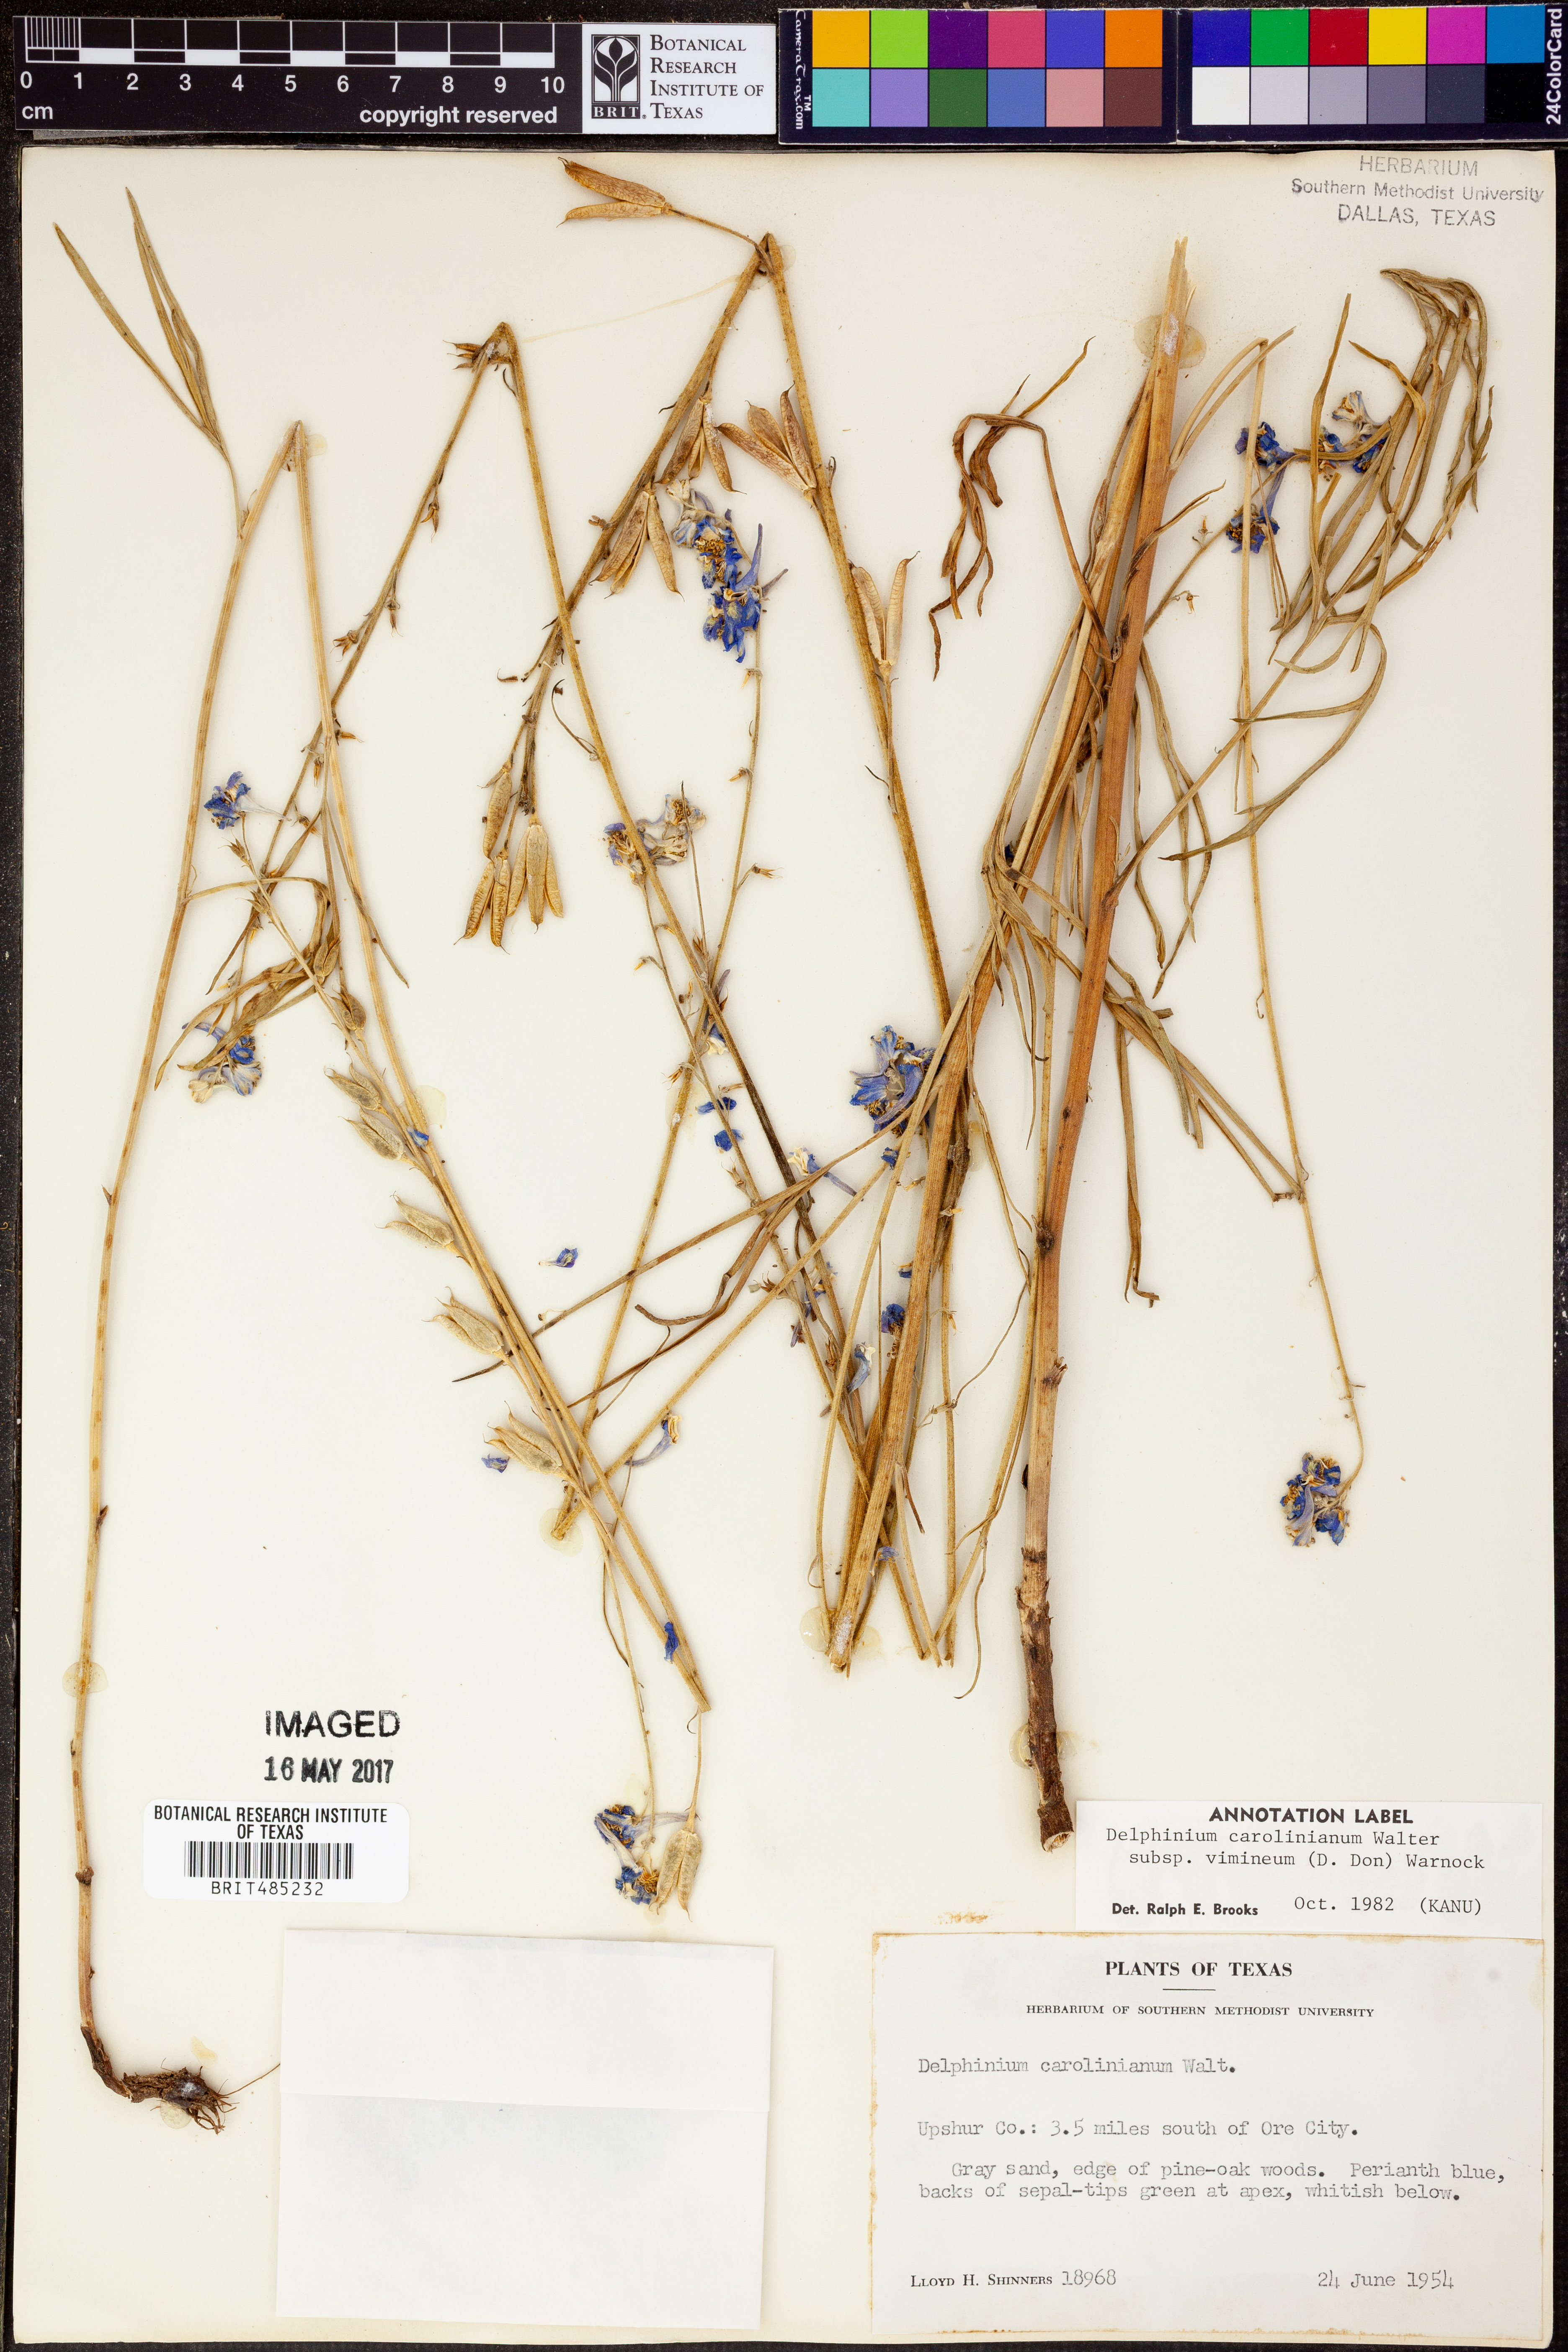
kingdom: Plantae
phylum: Tracheophyta
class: Magnoliopsida
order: Ranunculales
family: Ranunculaceae
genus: Delphinium
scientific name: Delphinium carolinianum
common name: Carolina larkspur
